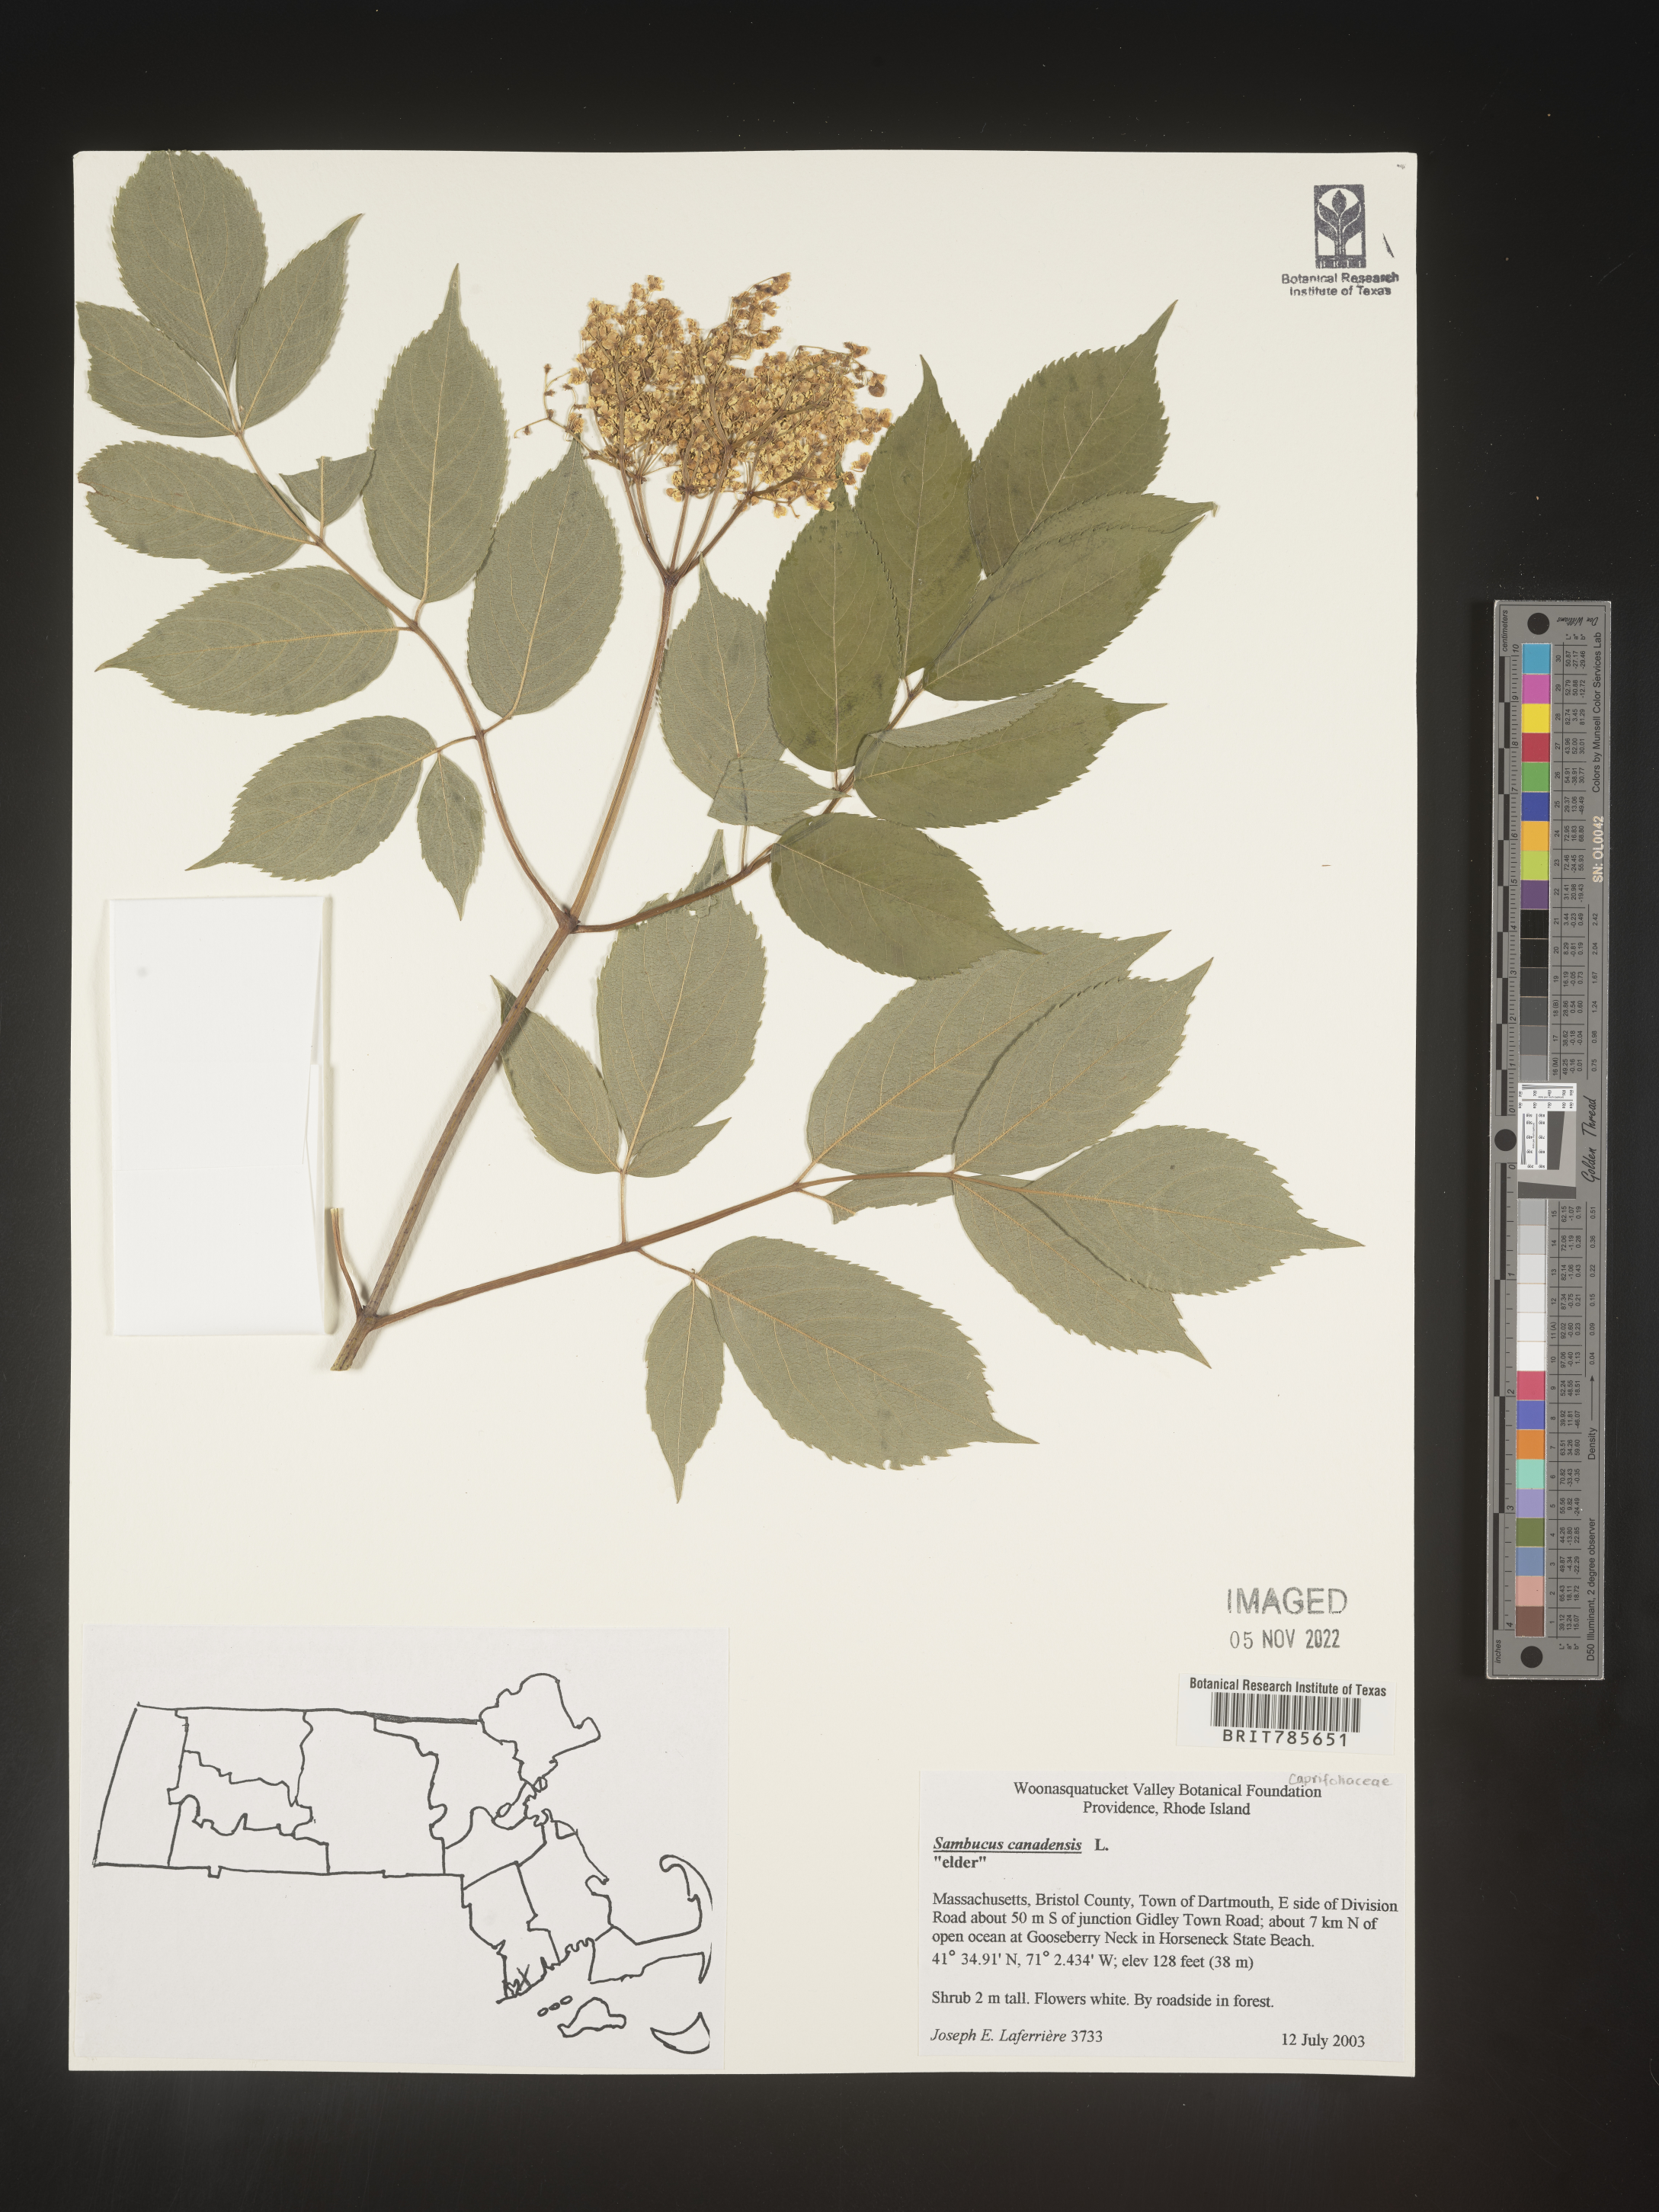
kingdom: Plantae
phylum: Tracheophyta
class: Magnoliopsida
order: Dipsacales
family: Viburnaceae
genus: Sambucus
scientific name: Sambucus canadensis
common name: American elder
